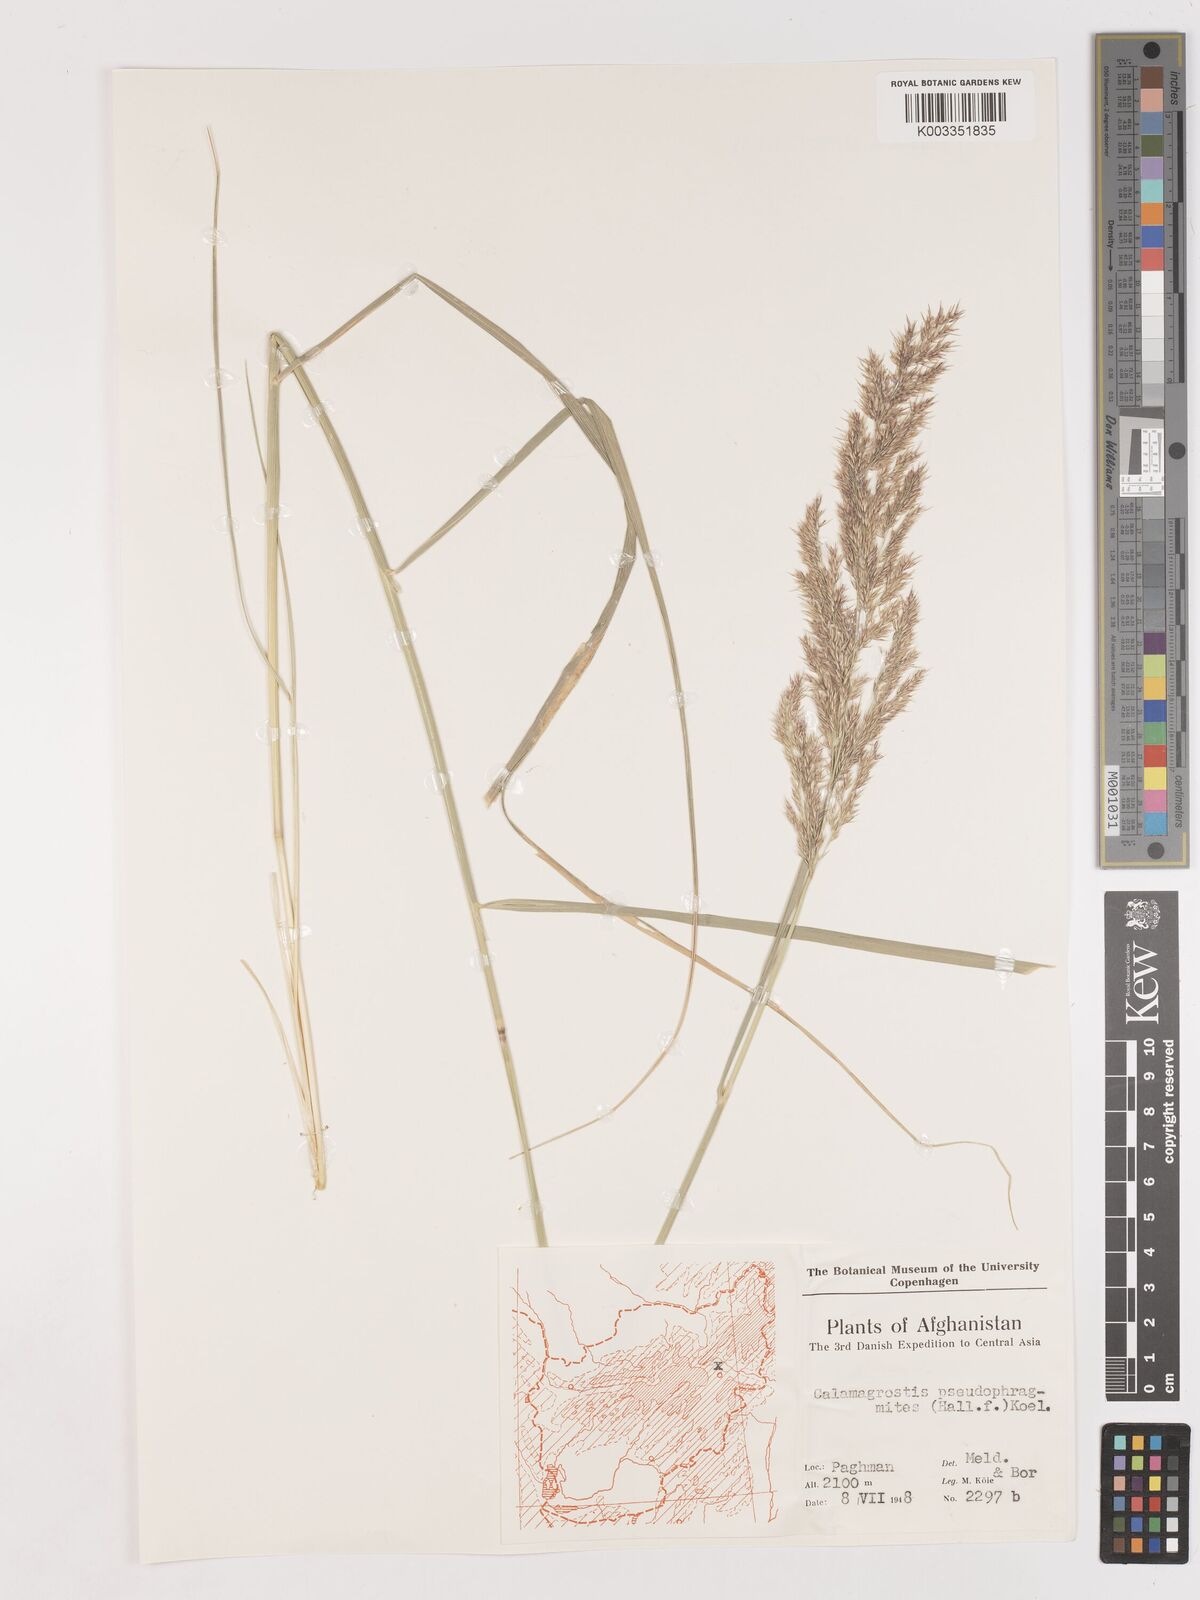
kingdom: Plantae
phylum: Tracheophyta
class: Liliopsida
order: Poales
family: Poaceae
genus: Calamagrostis
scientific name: Calamagrostis pseudophragmites
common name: Coastal small-reed
